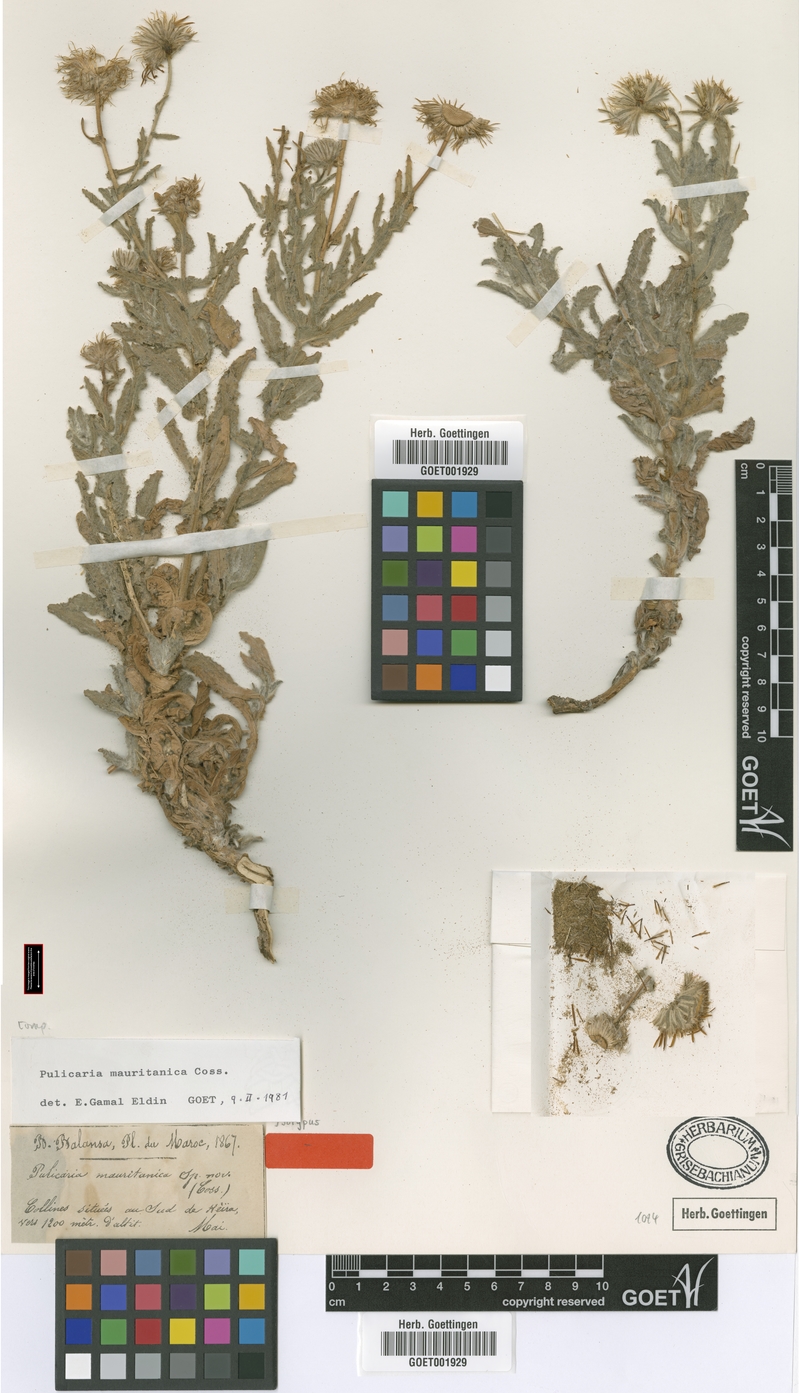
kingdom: Plantae
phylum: Tracheophyta
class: Magnoliopsida
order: Asterales
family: Asteraceae
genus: Pulicaria
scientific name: Pulicaria mauritanica
